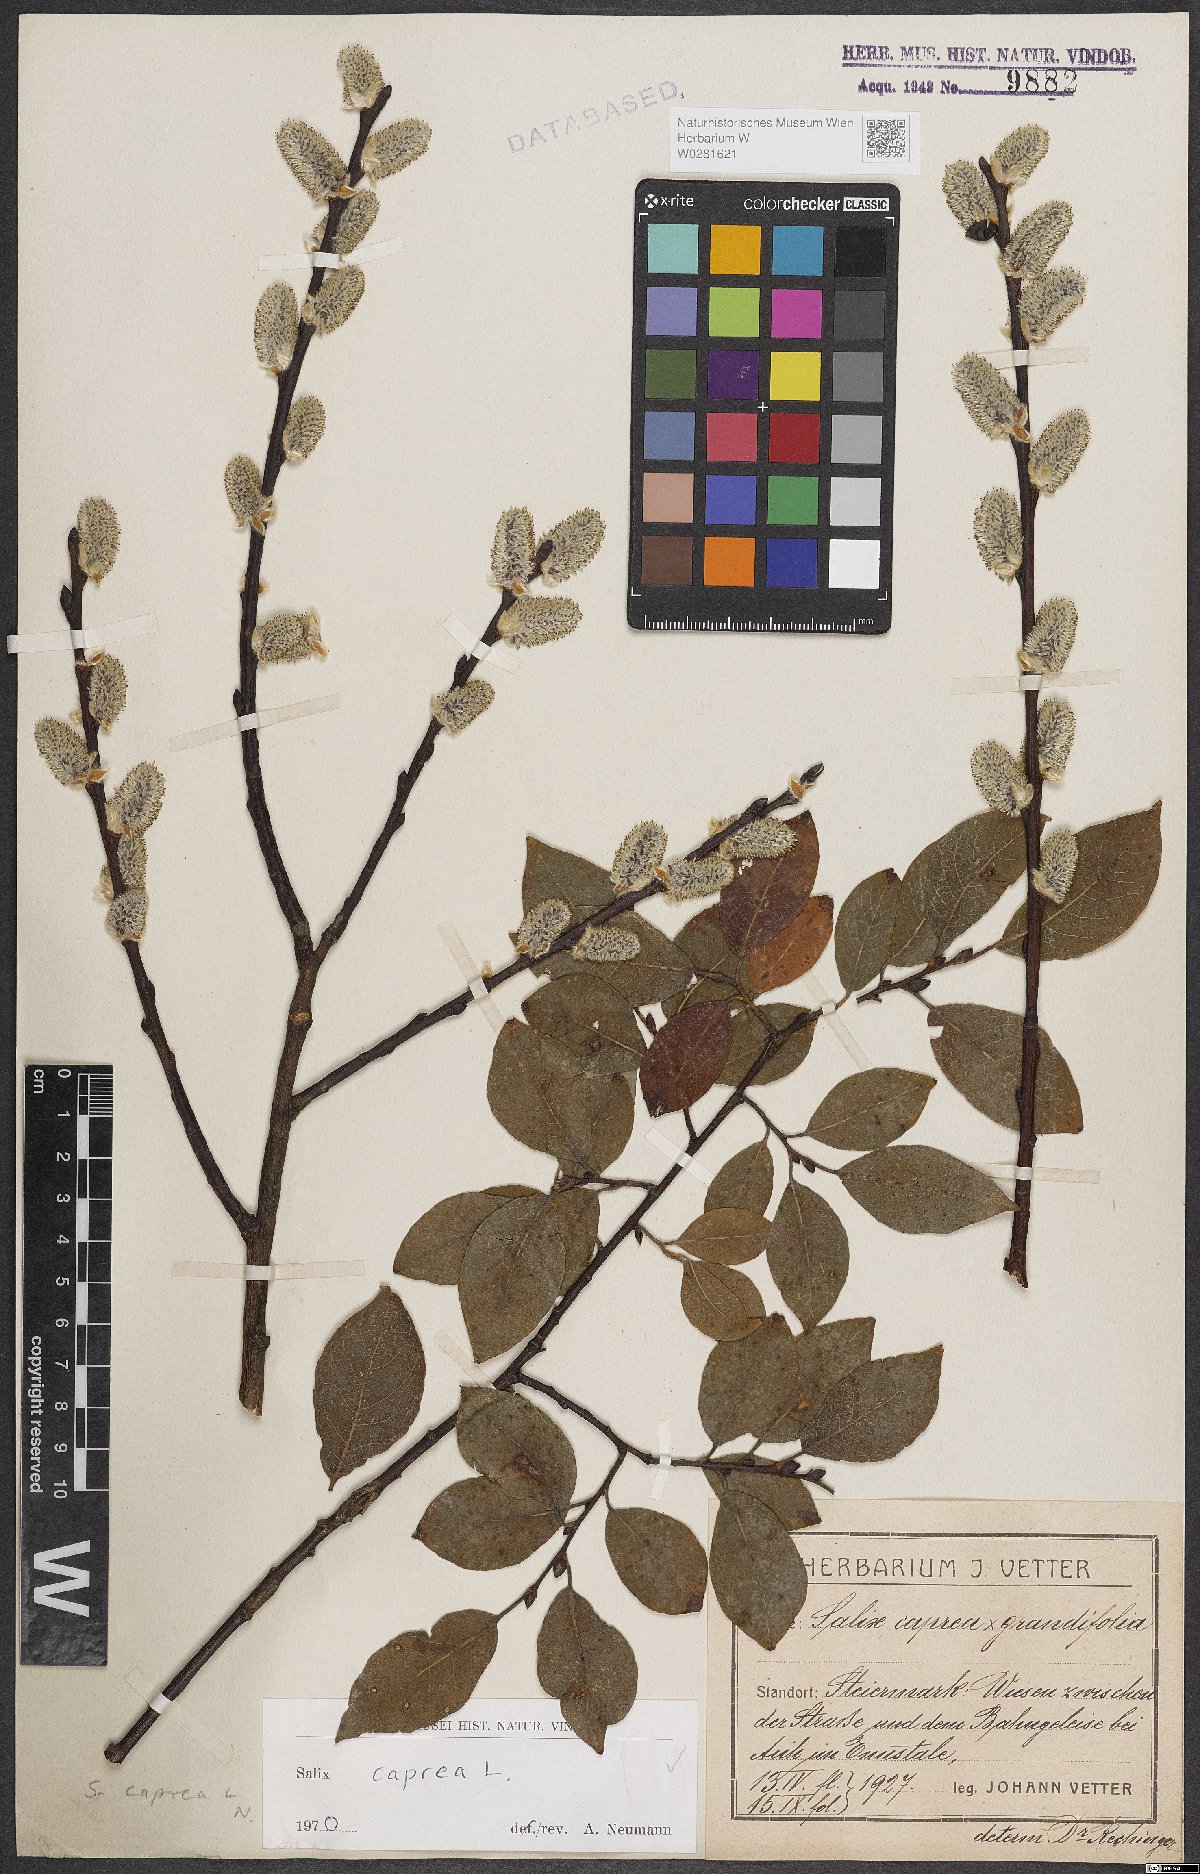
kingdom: Plantae
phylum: Tracheophyta
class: Magnoliopsida
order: Malpighiales
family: Salicaceae
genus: Salix
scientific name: Salix caprea
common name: Goat willow
